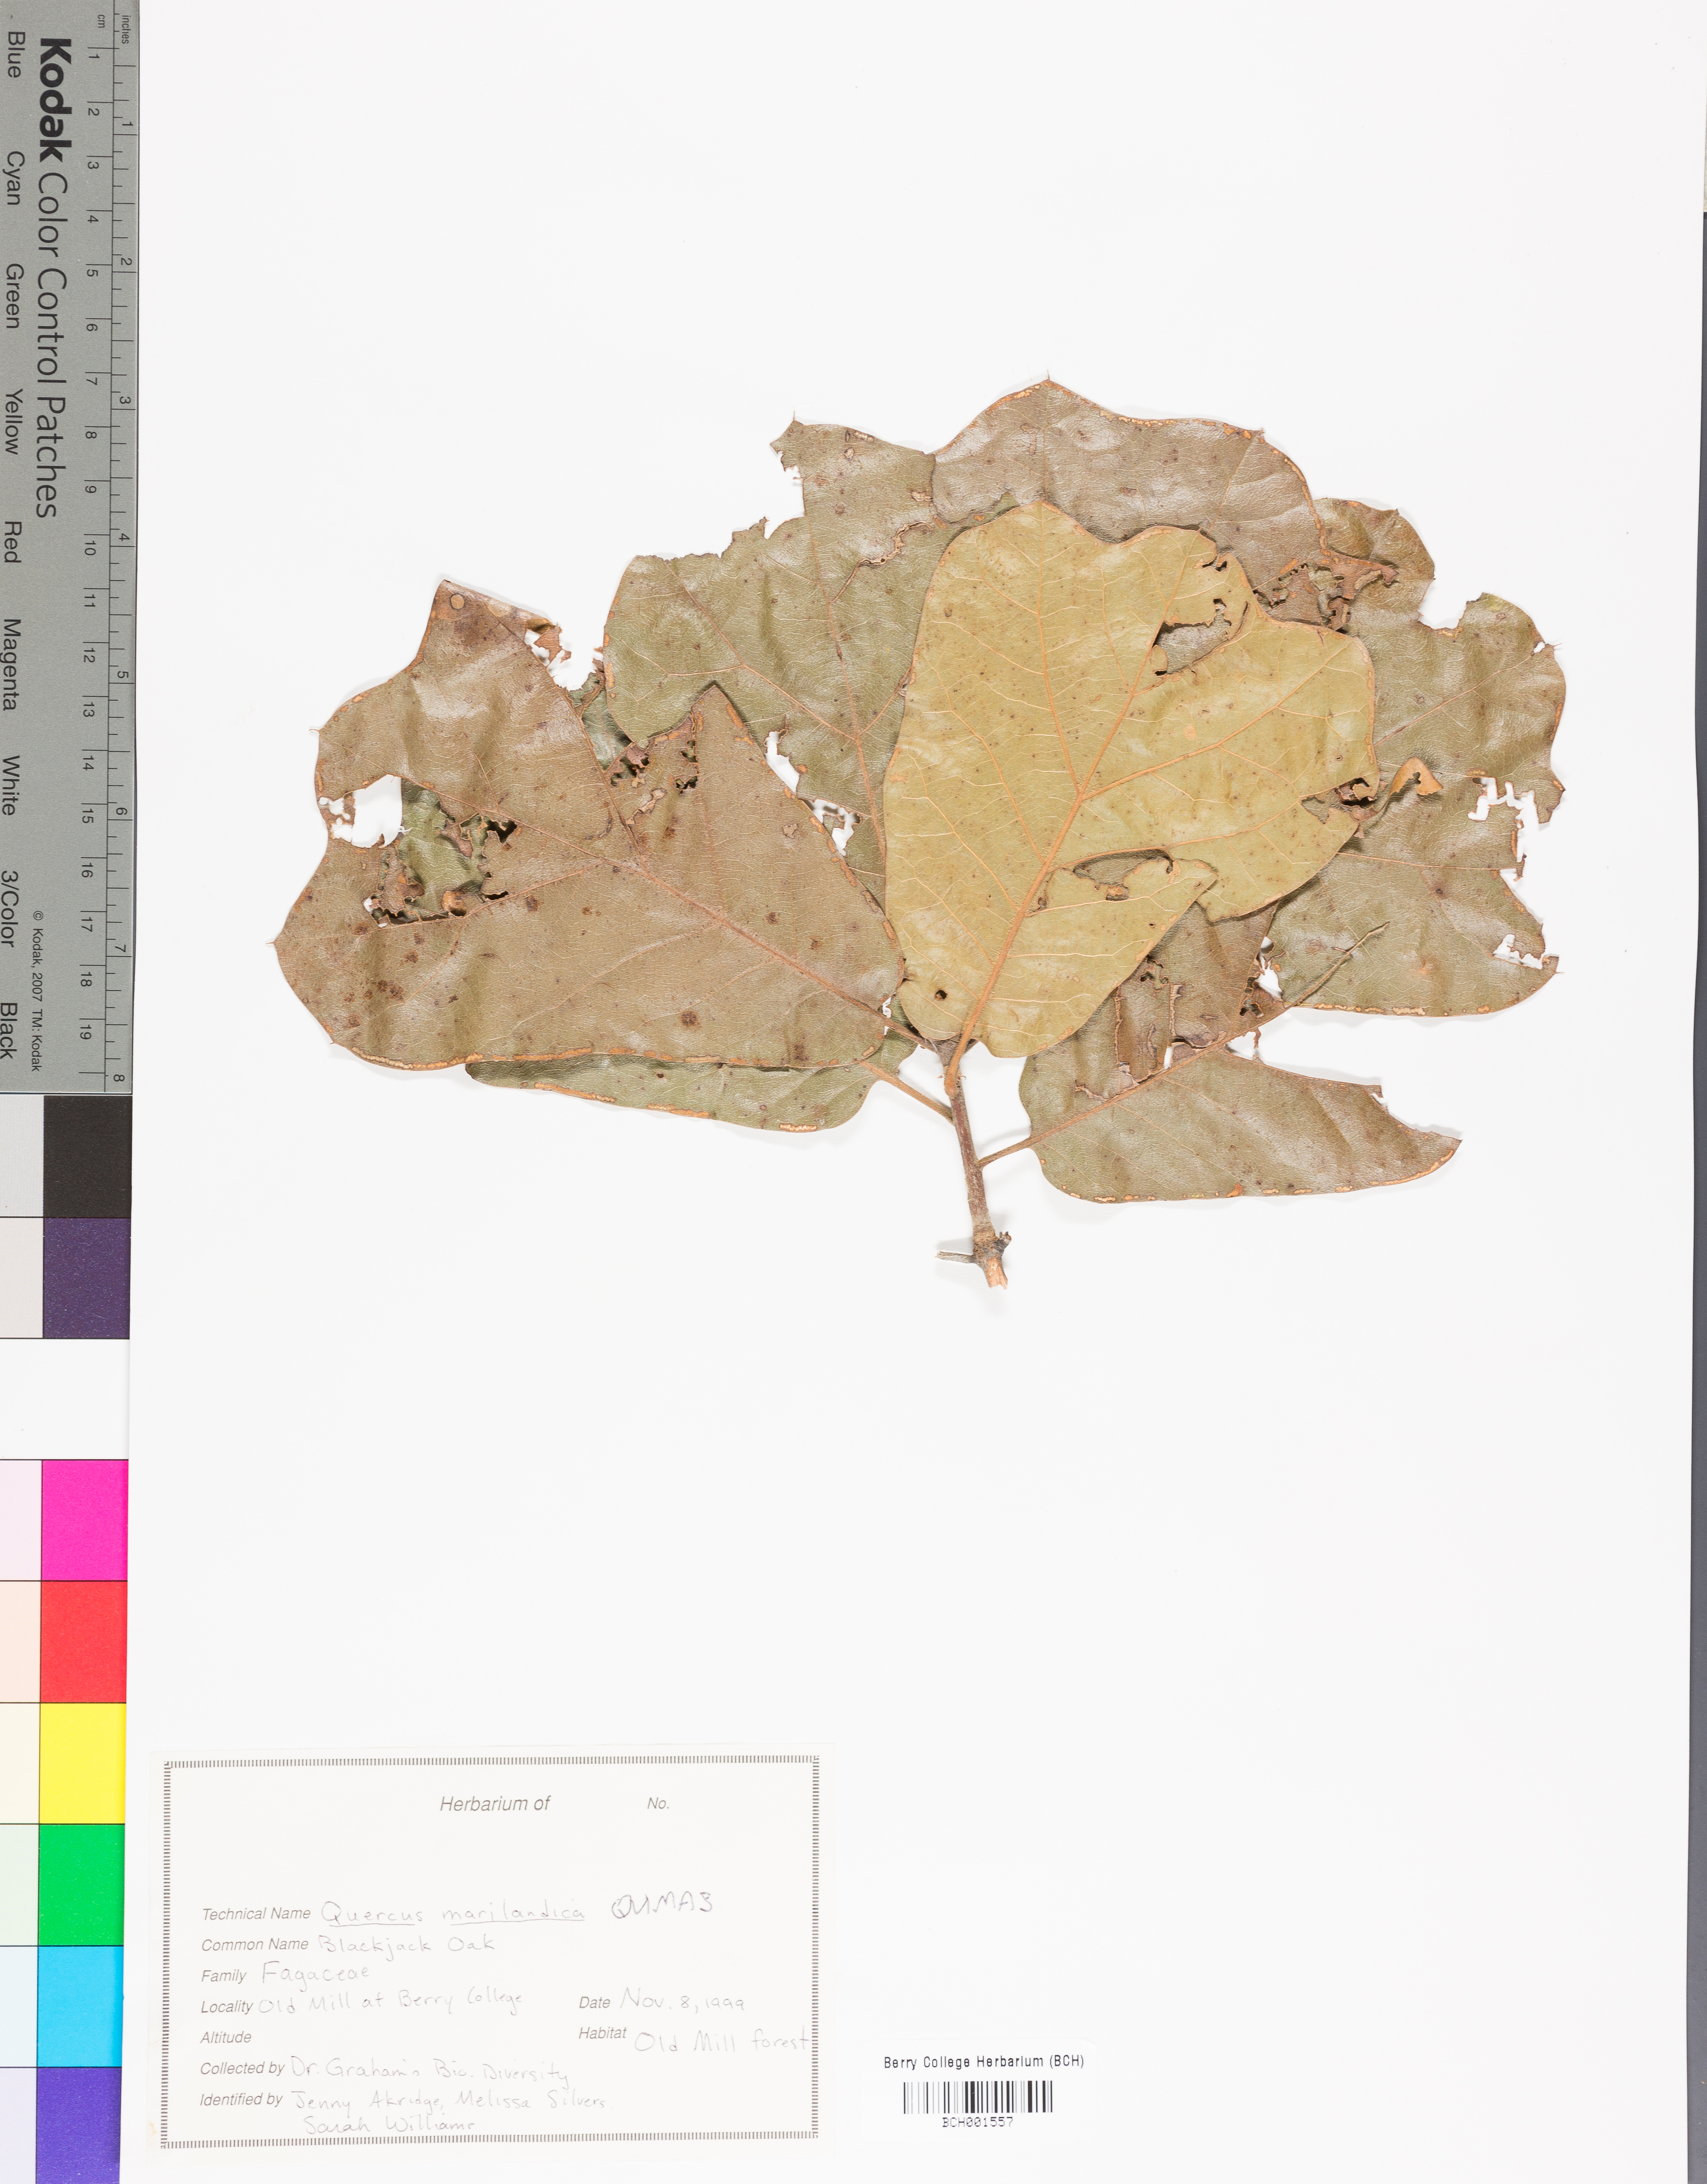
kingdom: Plantae
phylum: Tracheophyta
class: Magnoliopsida
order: Fagales
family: Fagaceae
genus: Quercus
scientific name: Quercus marilandica
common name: Blackjack oak
